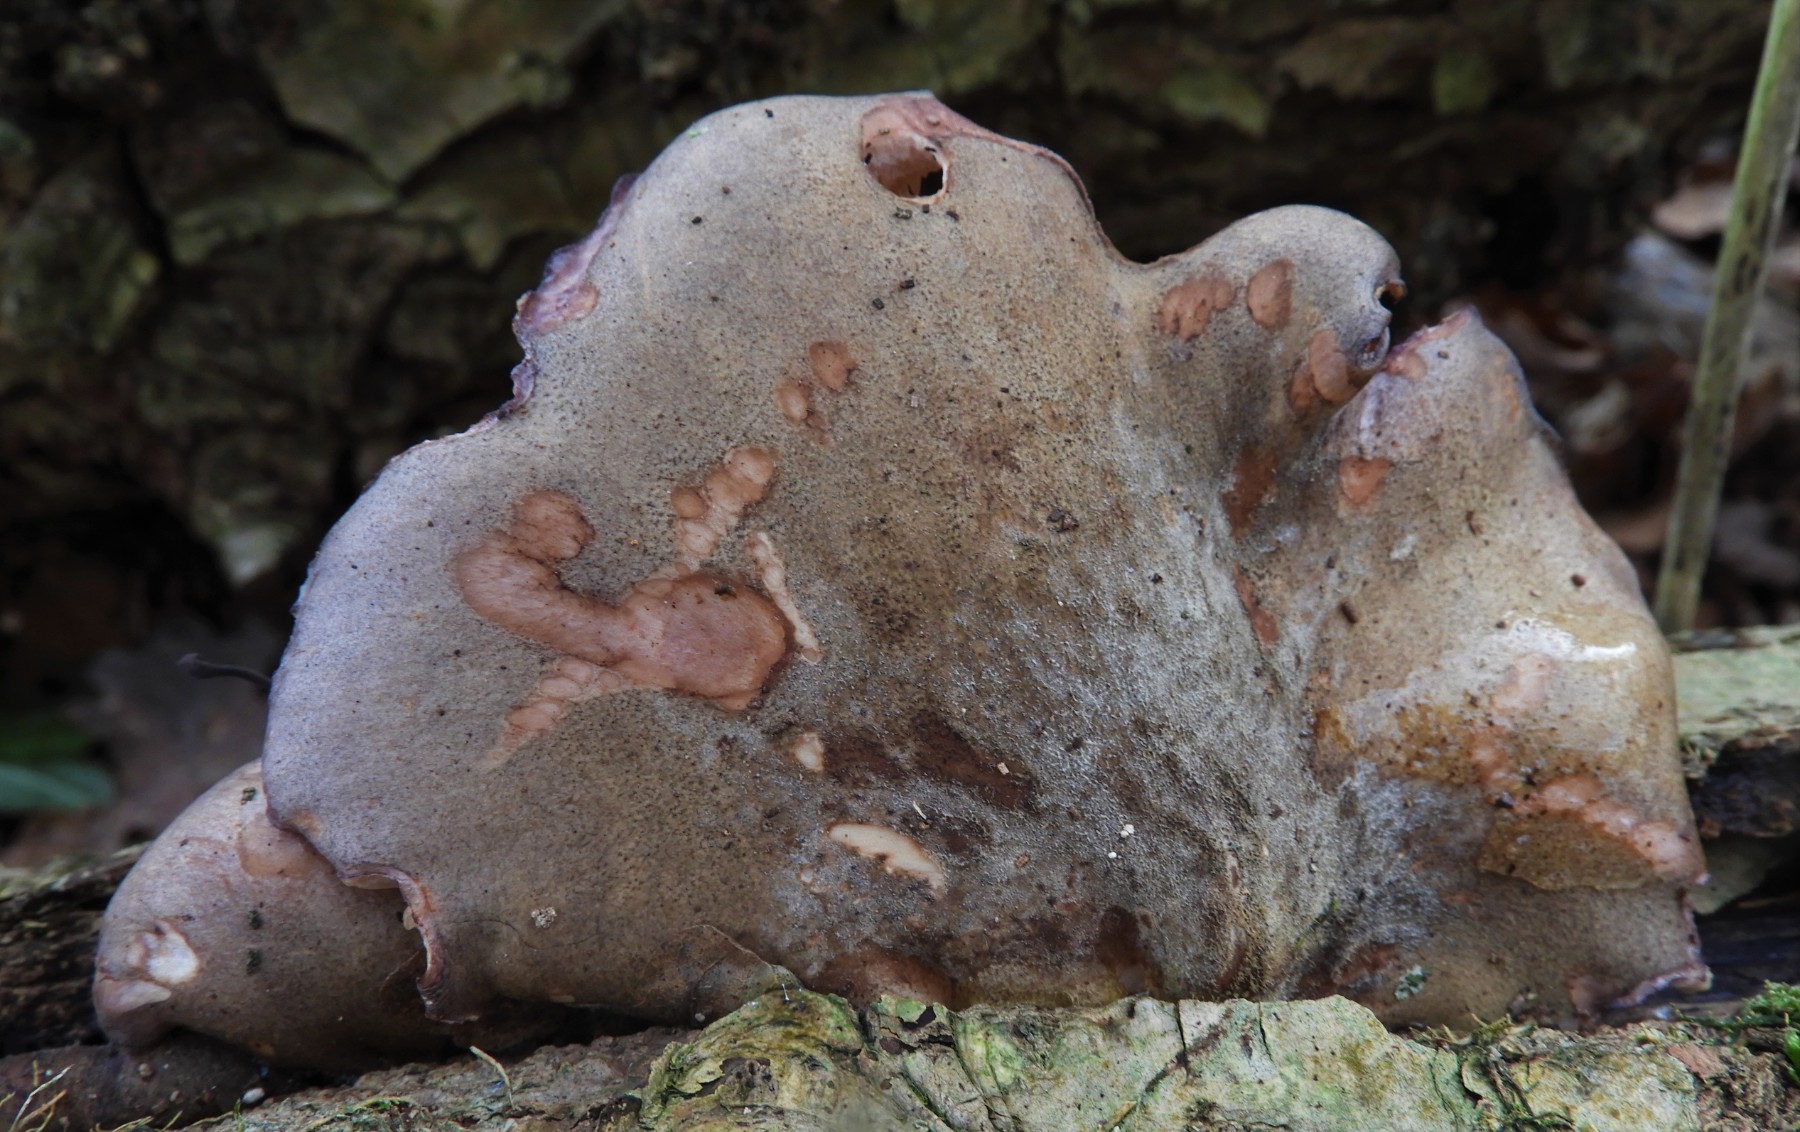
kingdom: Fungi
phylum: Basidiomycota
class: Agaricomycetes
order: Agaricales
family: Sarcomyxaceae
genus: Sarcomyxa
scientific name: Sarcomyxa serotina
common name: gummihat
